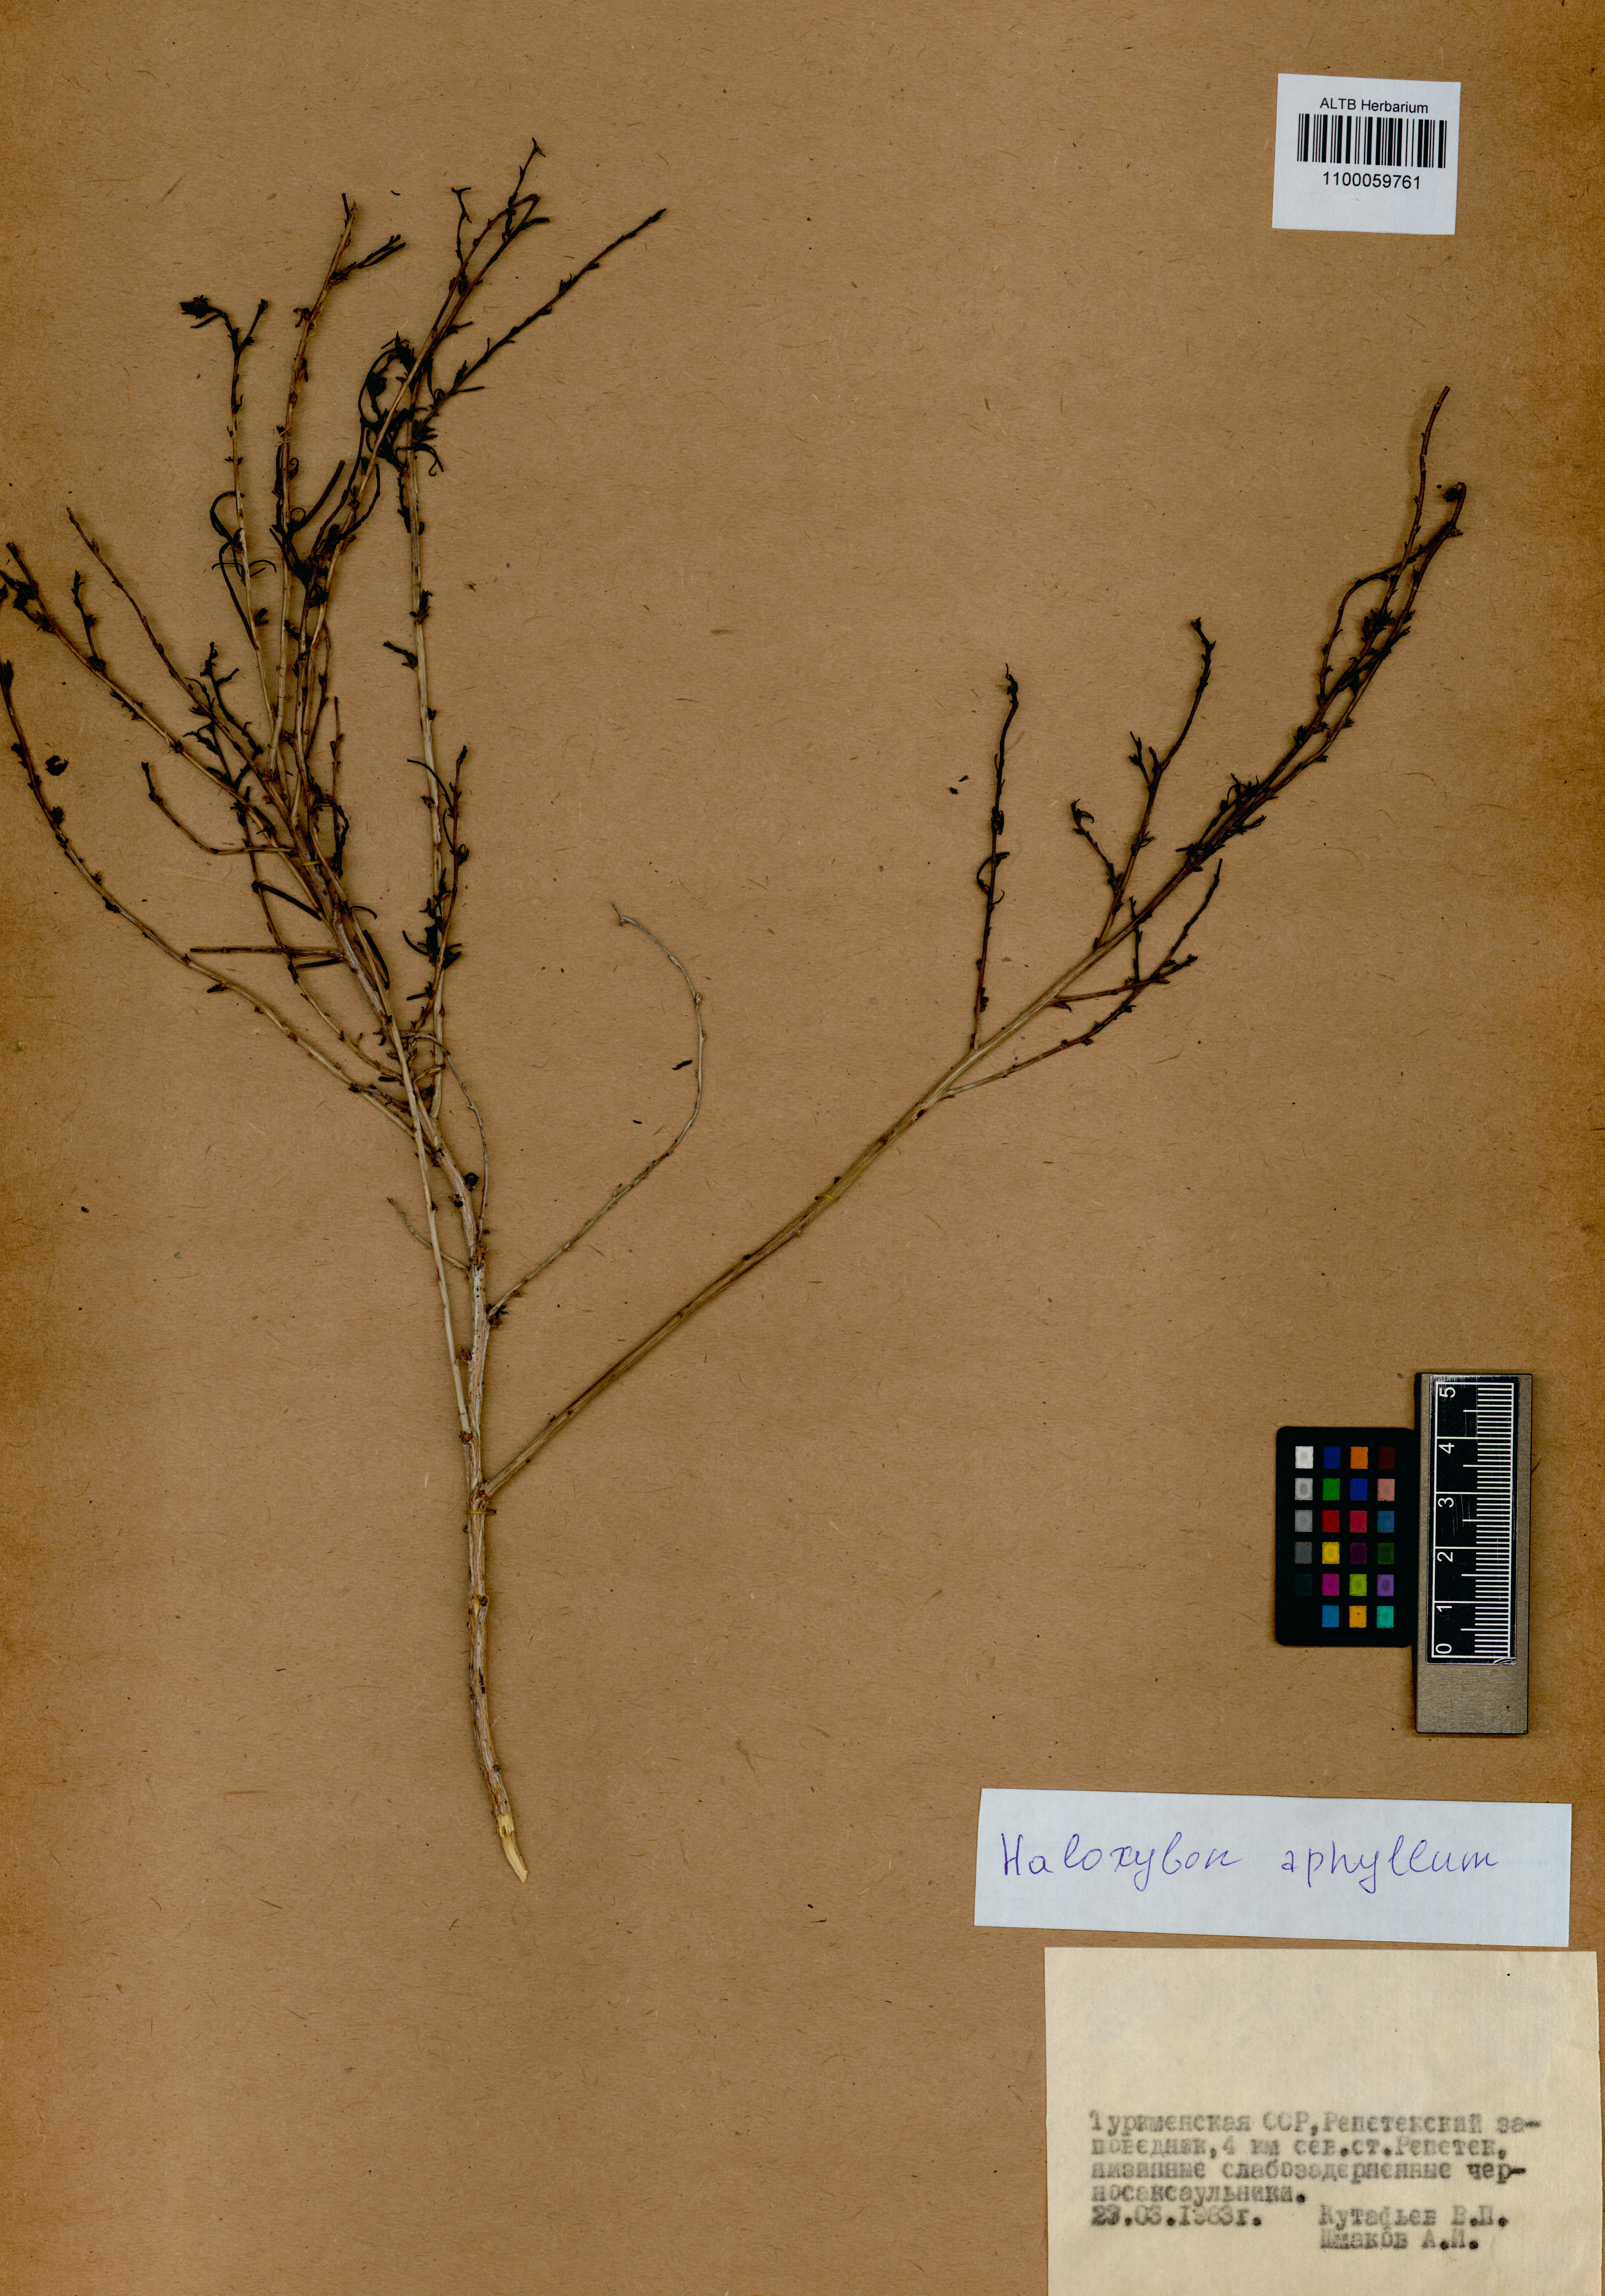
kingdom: Plantae
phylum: Tracheophyta
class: Magnoliopsida
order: Caryophyllales
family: Amaranthaceae
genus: Haloxylon
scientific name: Haloxylon ammodendron
